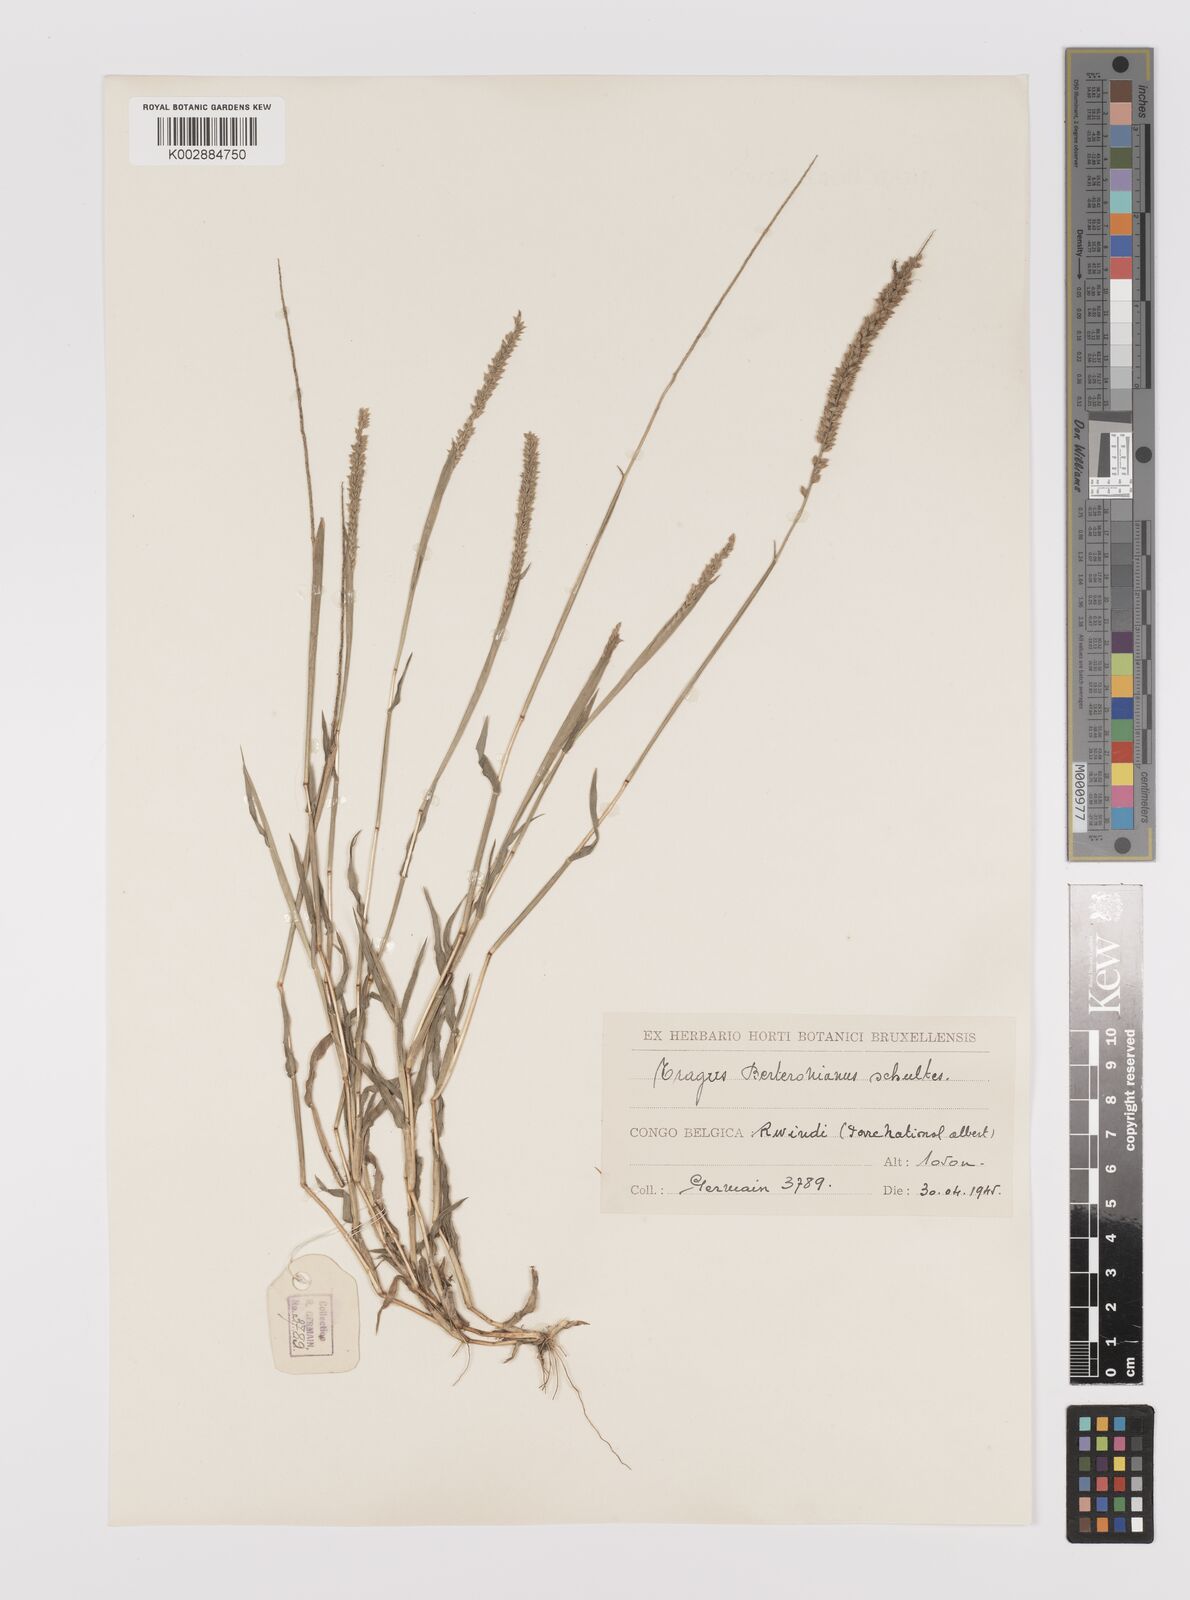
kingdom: Plantae
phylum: Tracheophyta
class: Liliopsida
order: Poales
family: Poaceae
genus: Tragus
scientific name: Tragus berteronianus
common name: African bur-grass
